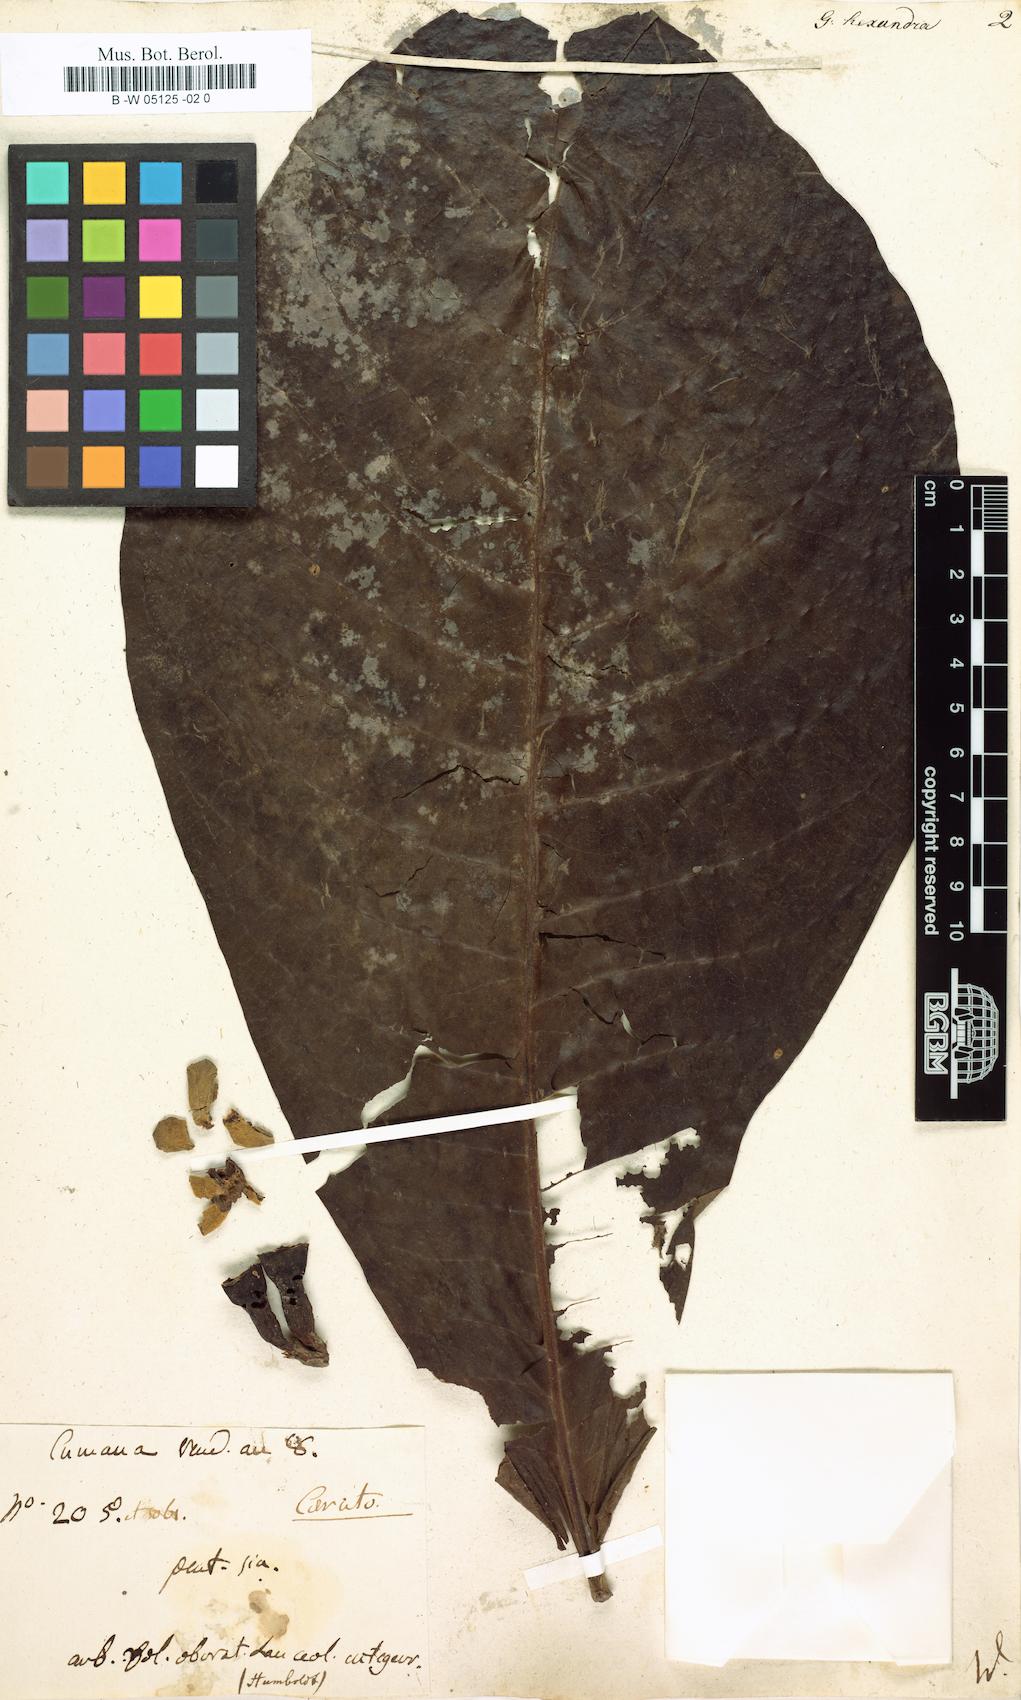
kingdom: Plantae
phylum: Tracheophyta
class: Magnoliopsida
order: Gentianales
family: Rubiaceae
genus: Genipa
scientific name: Genipa americana
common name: Genipap
